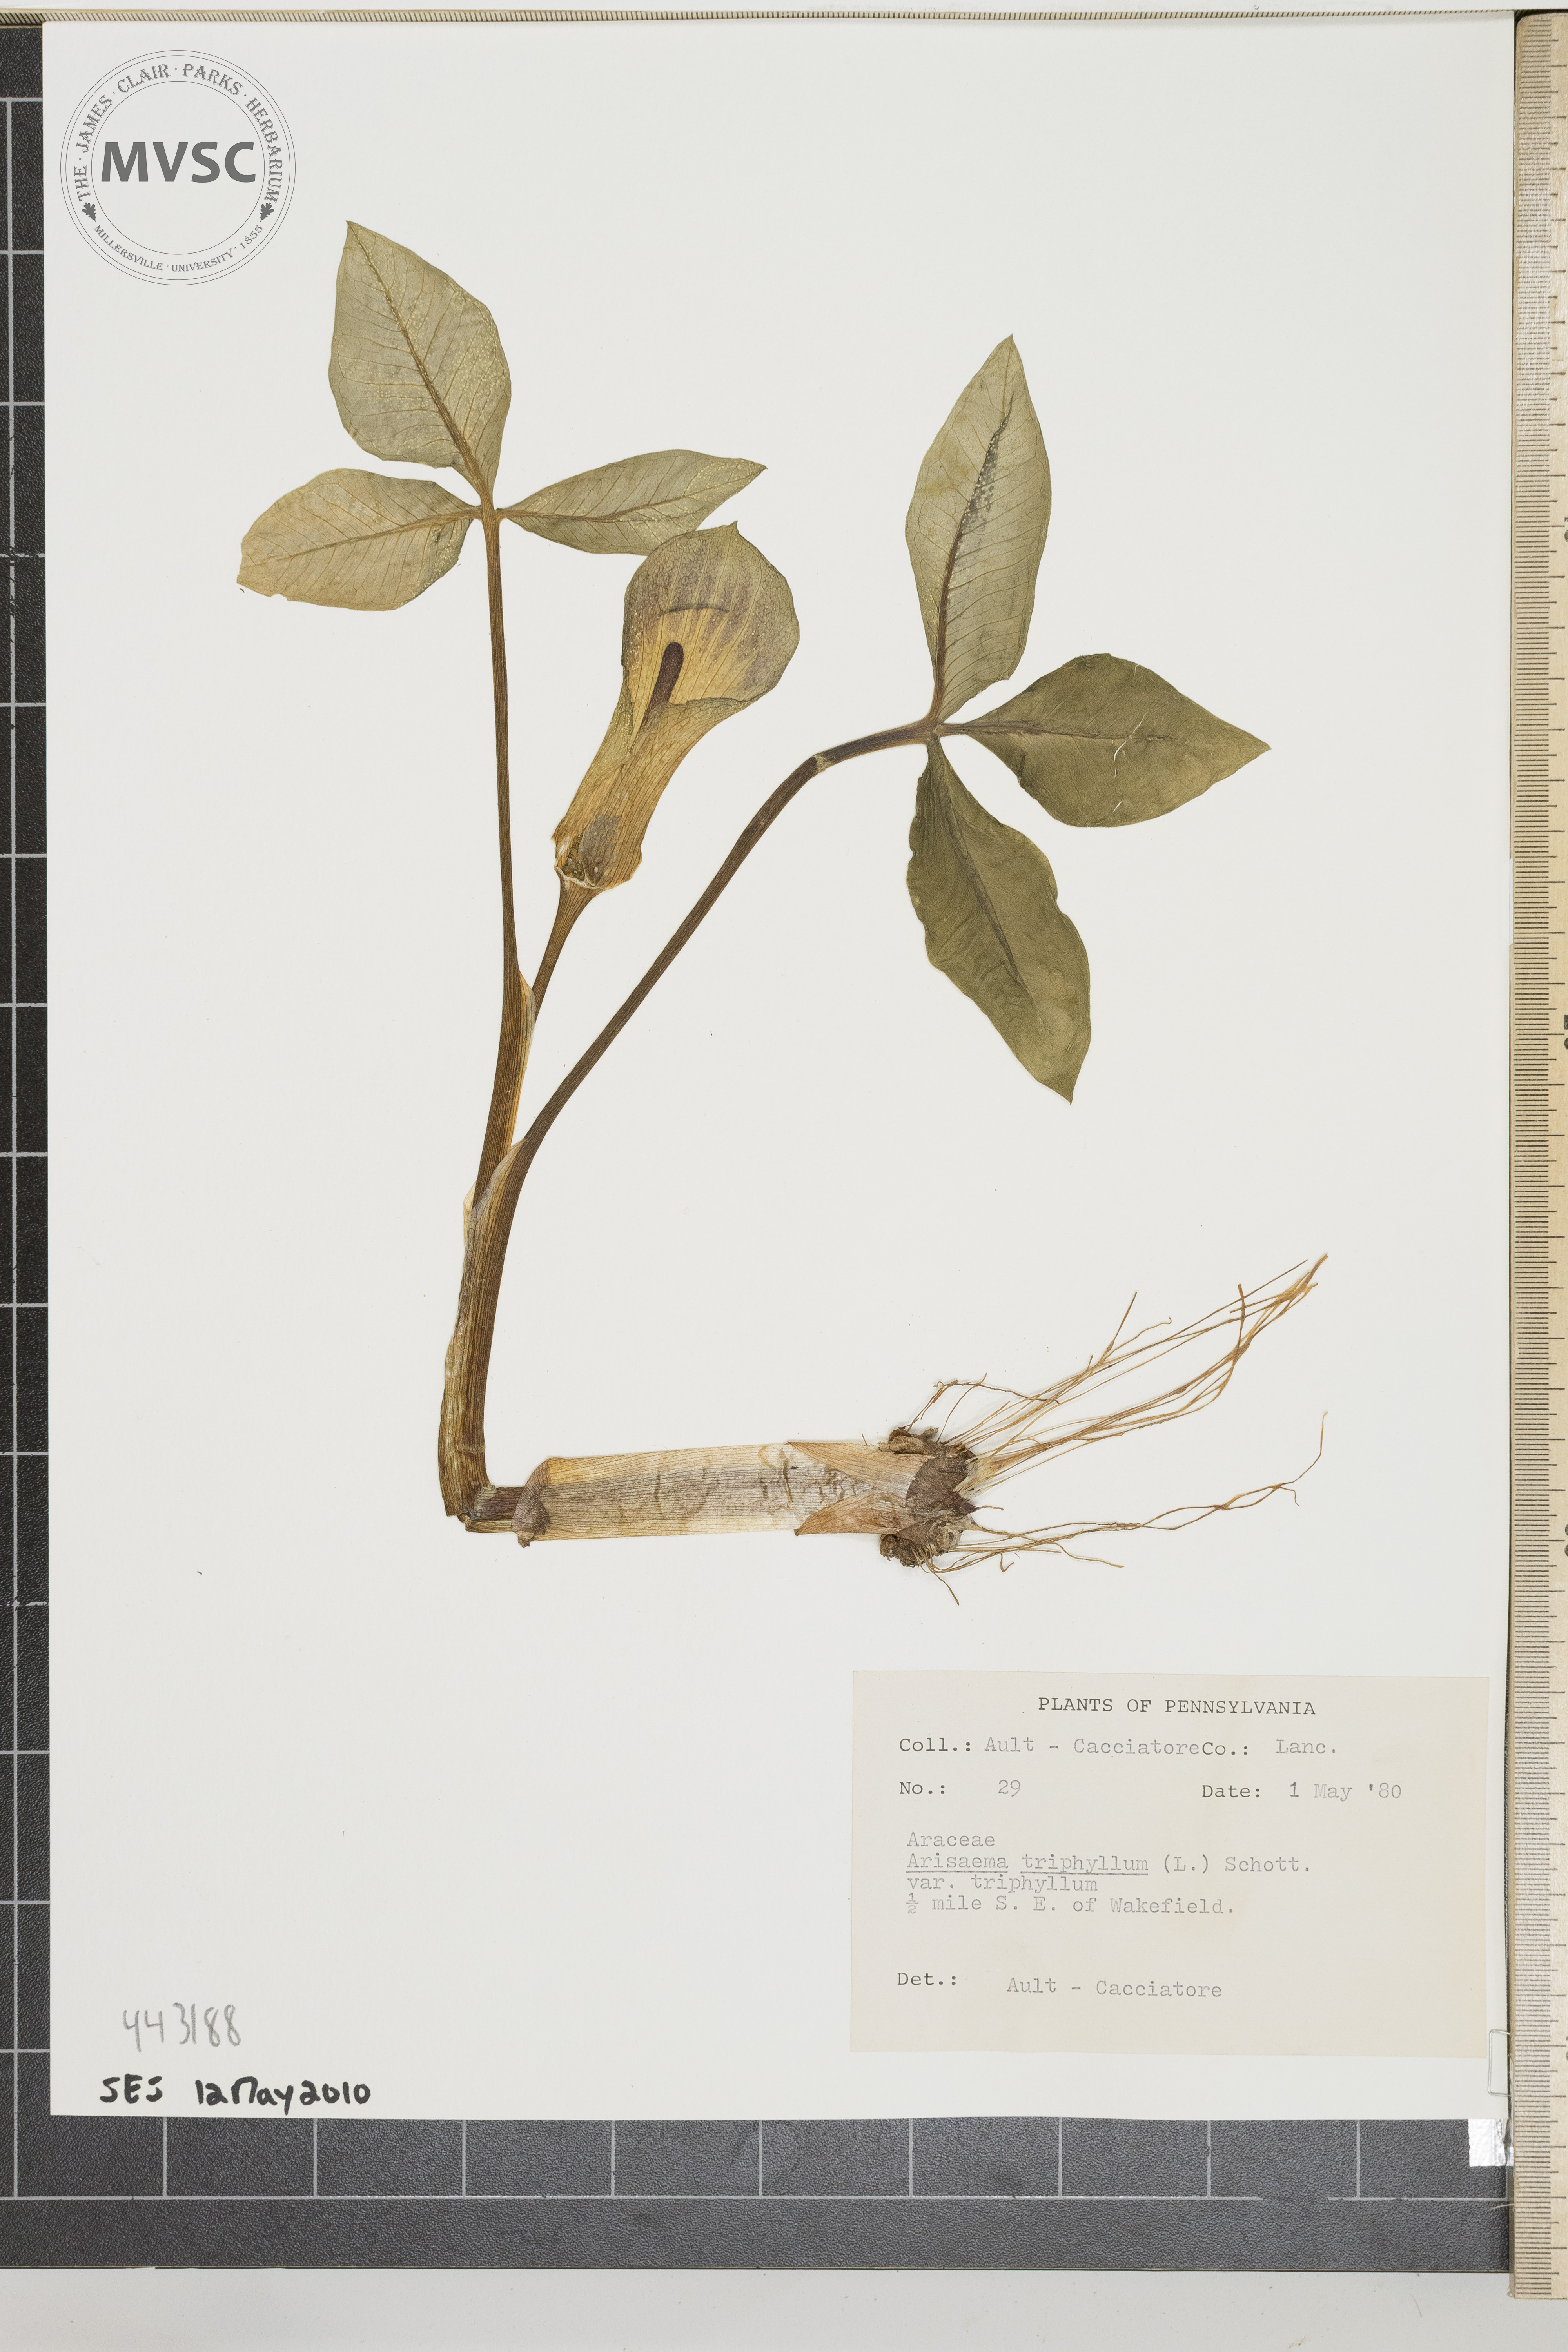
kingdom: Plantae
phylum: Tracheophyta
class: Liliopsida
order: Alismatales
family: Araceae
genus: Arisaema
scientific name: Arisaema triphyllum
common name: Jack-in-the-pulpit
